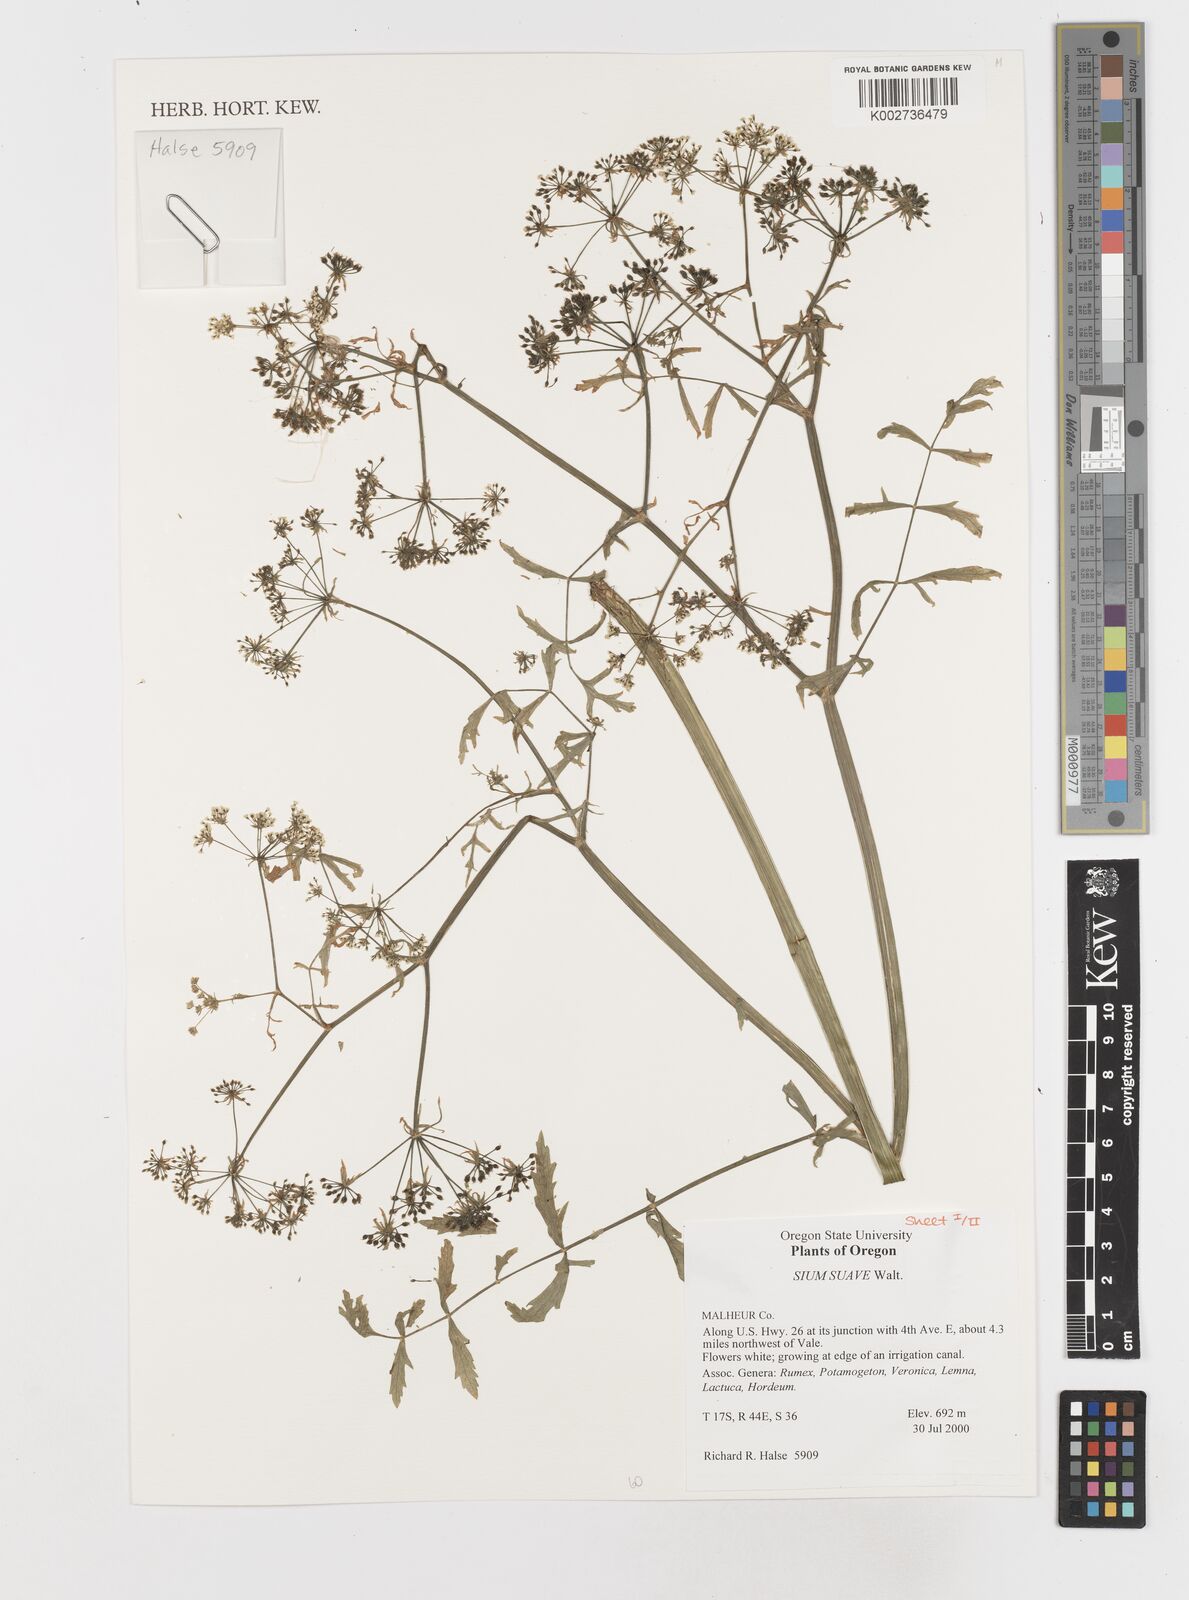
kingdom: Plantae
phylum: Tracheophyta
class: Magnoliopsida
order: Apiales
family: Apiaceae
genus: Sium
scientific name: Sium suave
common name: Hemlock water-parsnip
